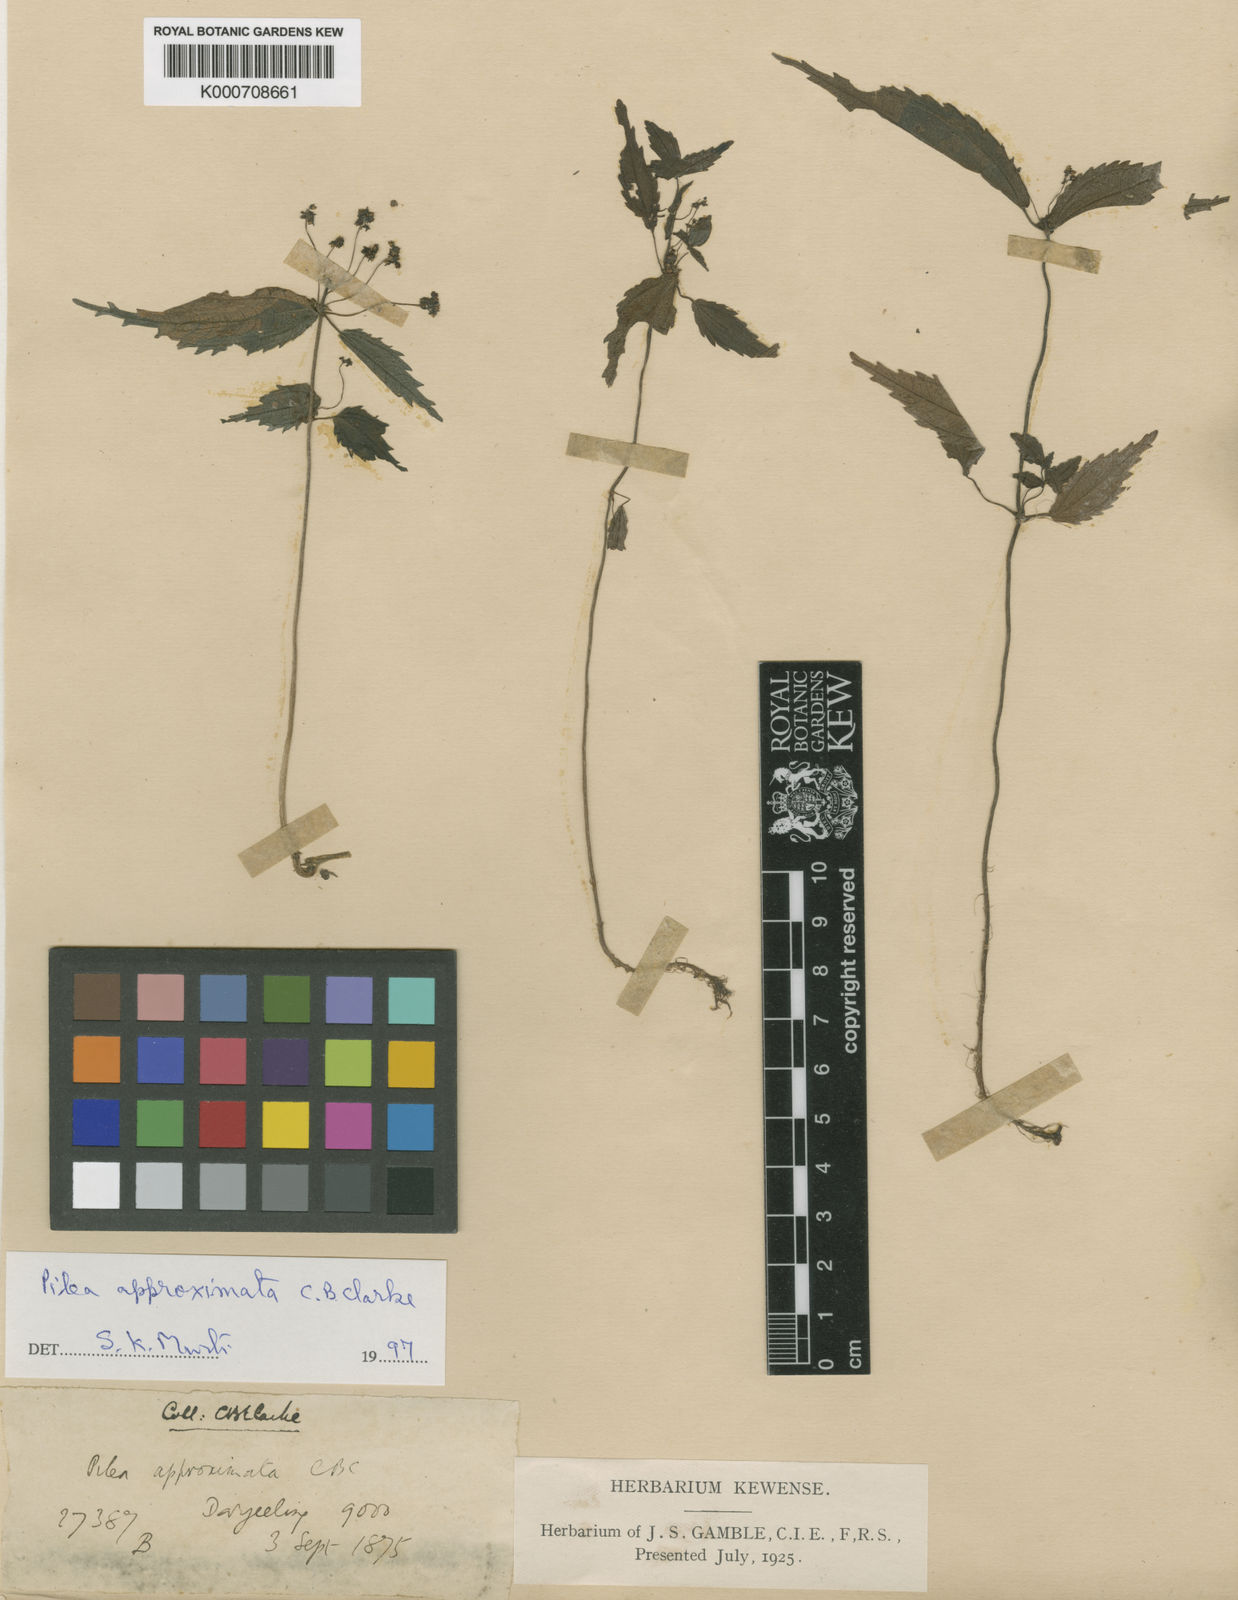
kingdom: Plantae
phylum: Tracheophyta
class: Magnoliopsida
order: Rosales
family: Urticaceae
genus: Pilea
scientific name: Pilea approximata
